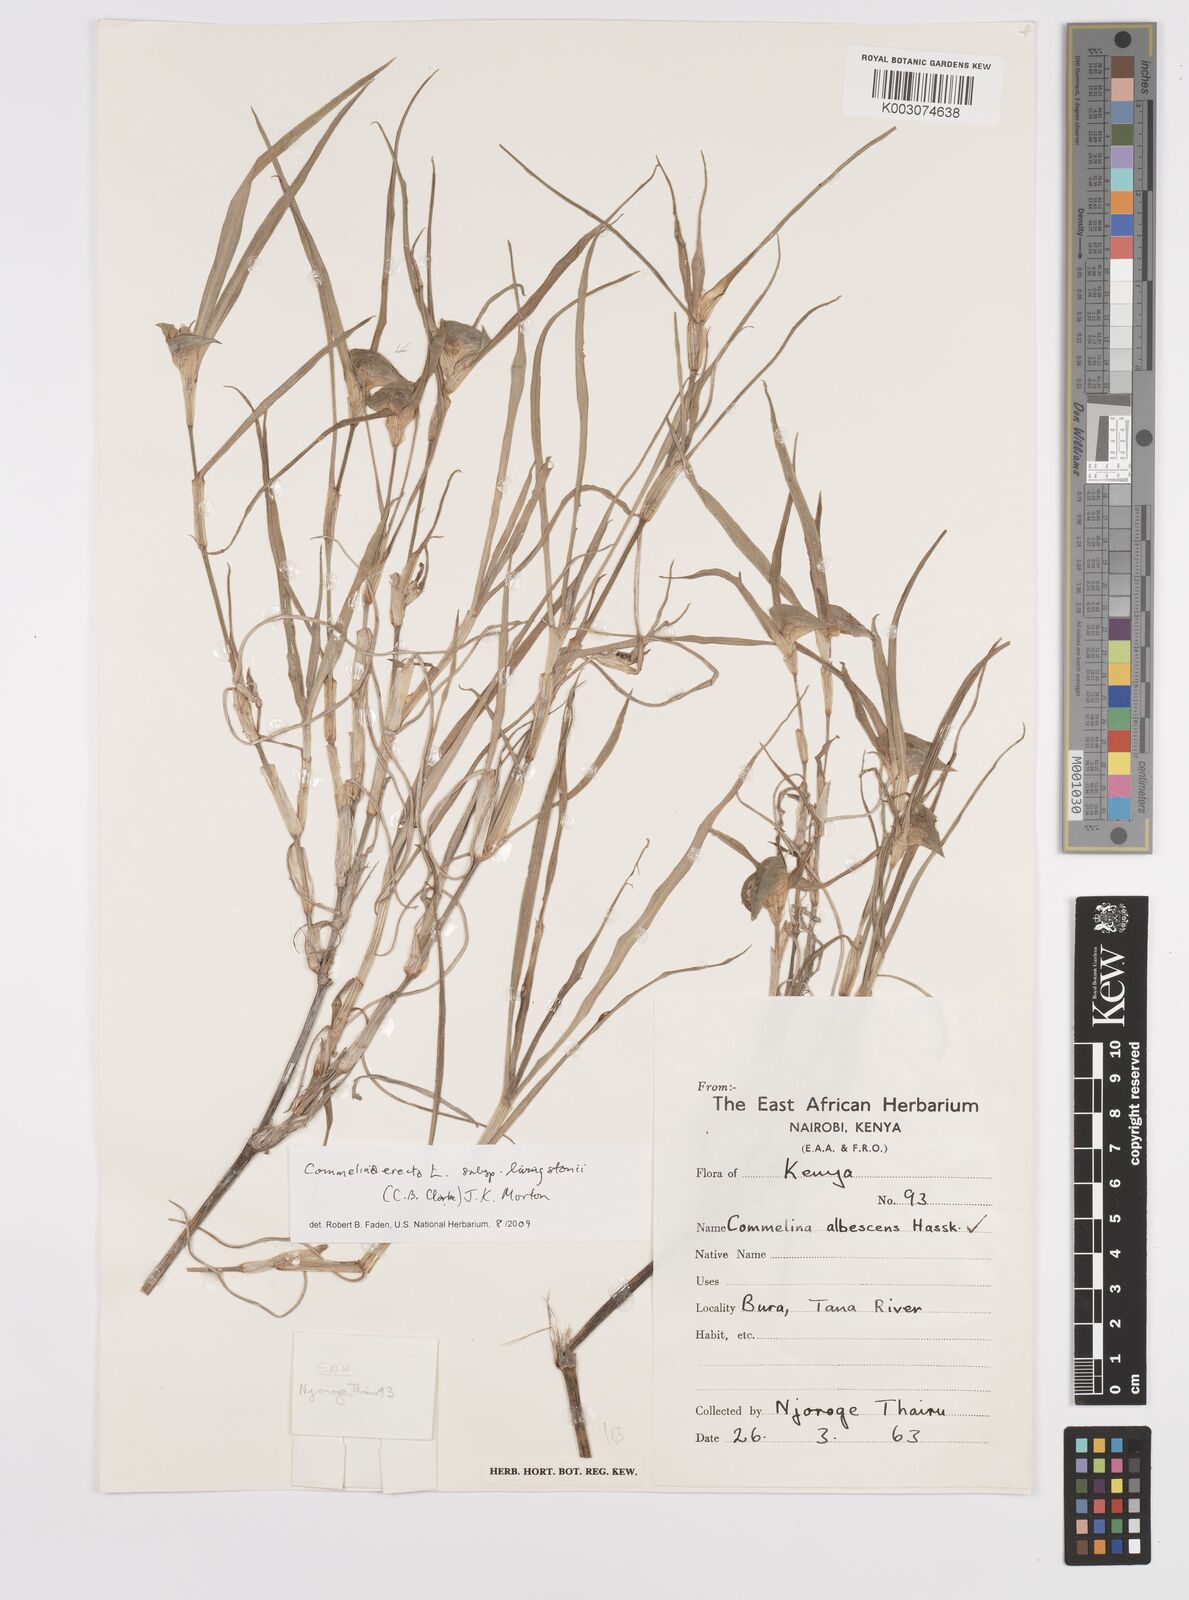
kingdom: Plantae
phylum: Tracheophyta
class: Liliopsida
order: Commelinales
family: Commelinaceae
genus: Commelina
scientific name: Commelina erecta
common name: Blousel blommetjie
